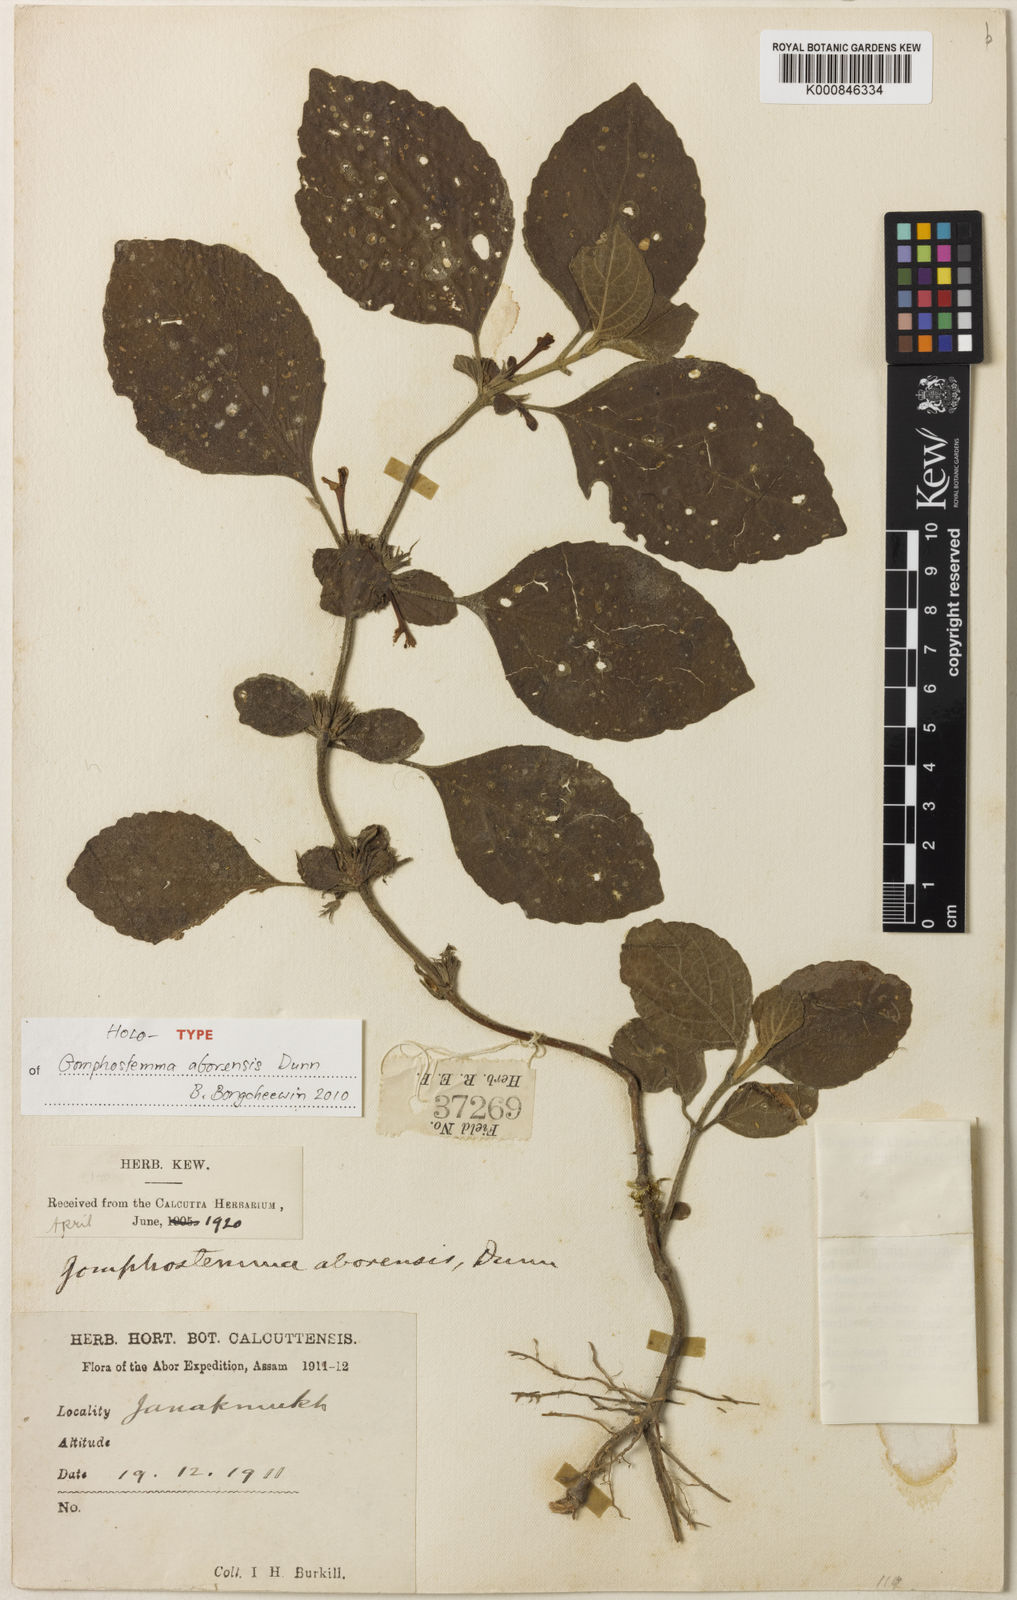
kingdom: Plantae
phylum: Tracheophyta
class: Magnoliopsida
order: Lamiales
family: Lamiaceae
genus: Gomphostemma
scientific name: Gomphostemma
